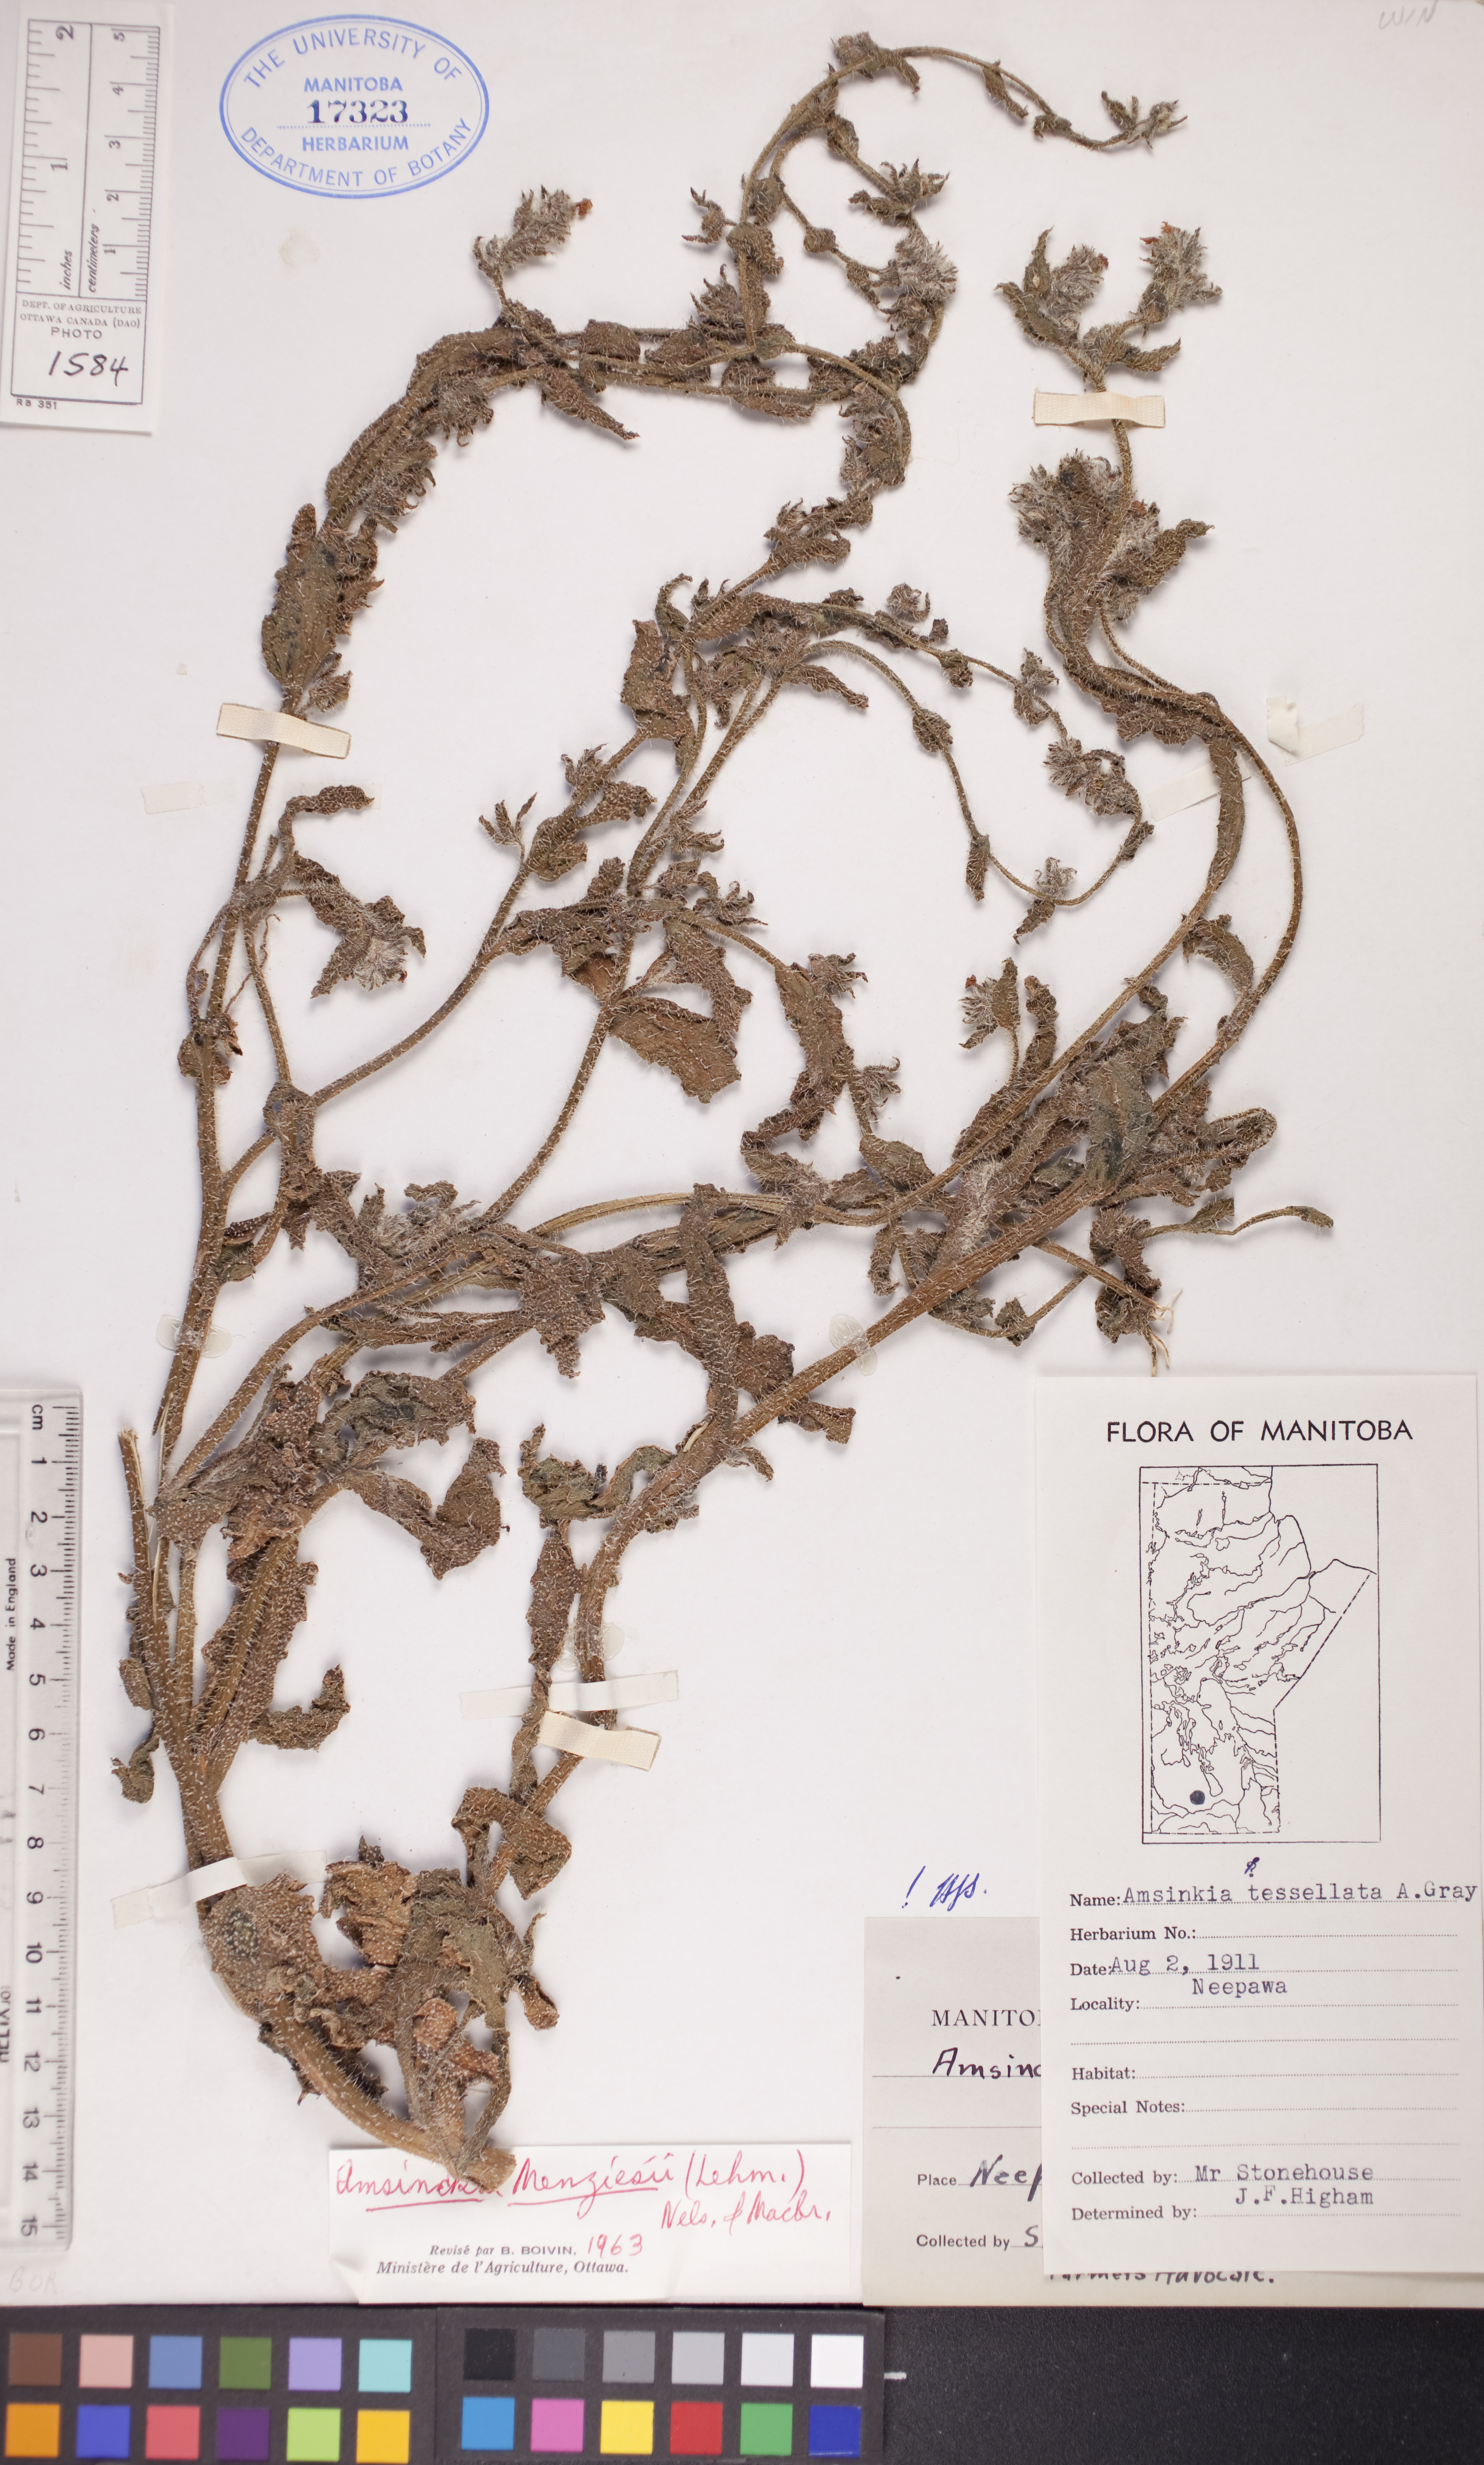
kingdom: Plantae
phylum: Tracheophyta
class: Magnoliopsida
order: Boraginales
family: Boraginaceae
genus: Amsinckia
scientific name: Amsinckia menziesii
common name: Menzies' fiddleneck
